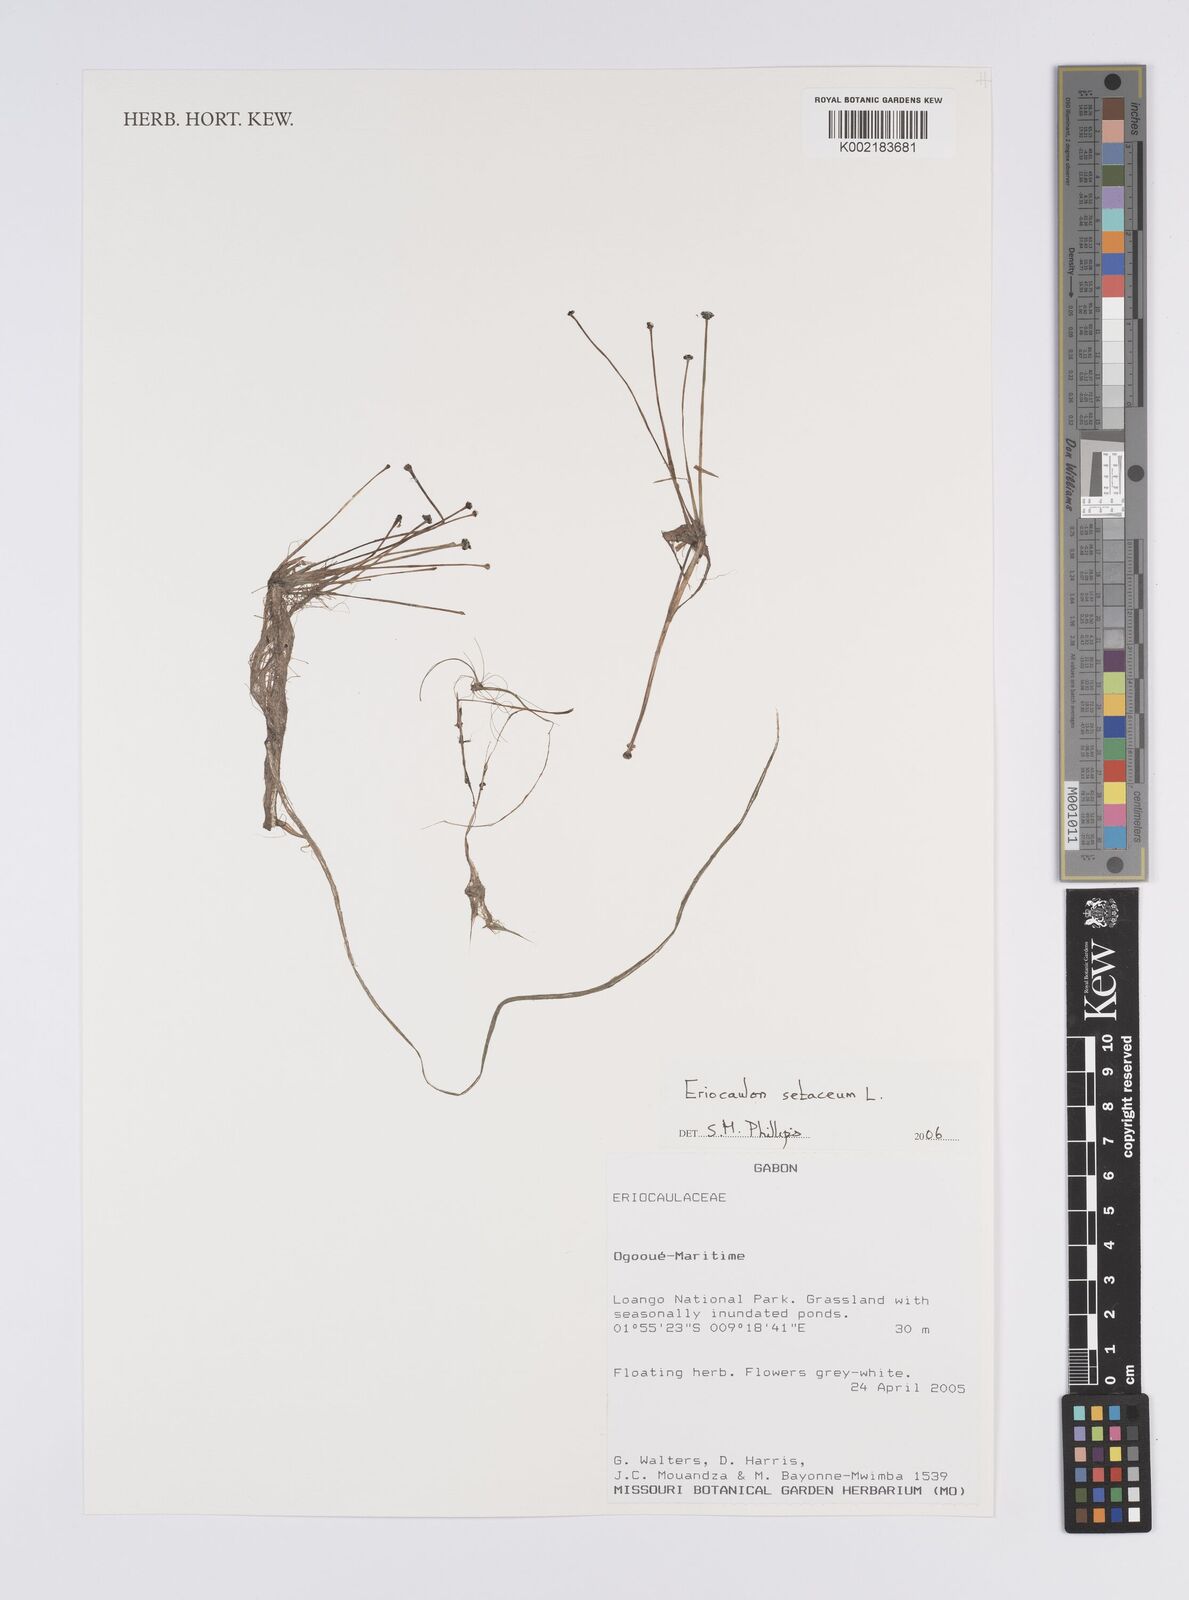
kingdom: Plantae
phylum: Tracheophyta
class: Liliopsida
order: Poales
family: Eriocaulaceae
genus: Eriocaulon
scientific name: Eriocaulon setaceum
